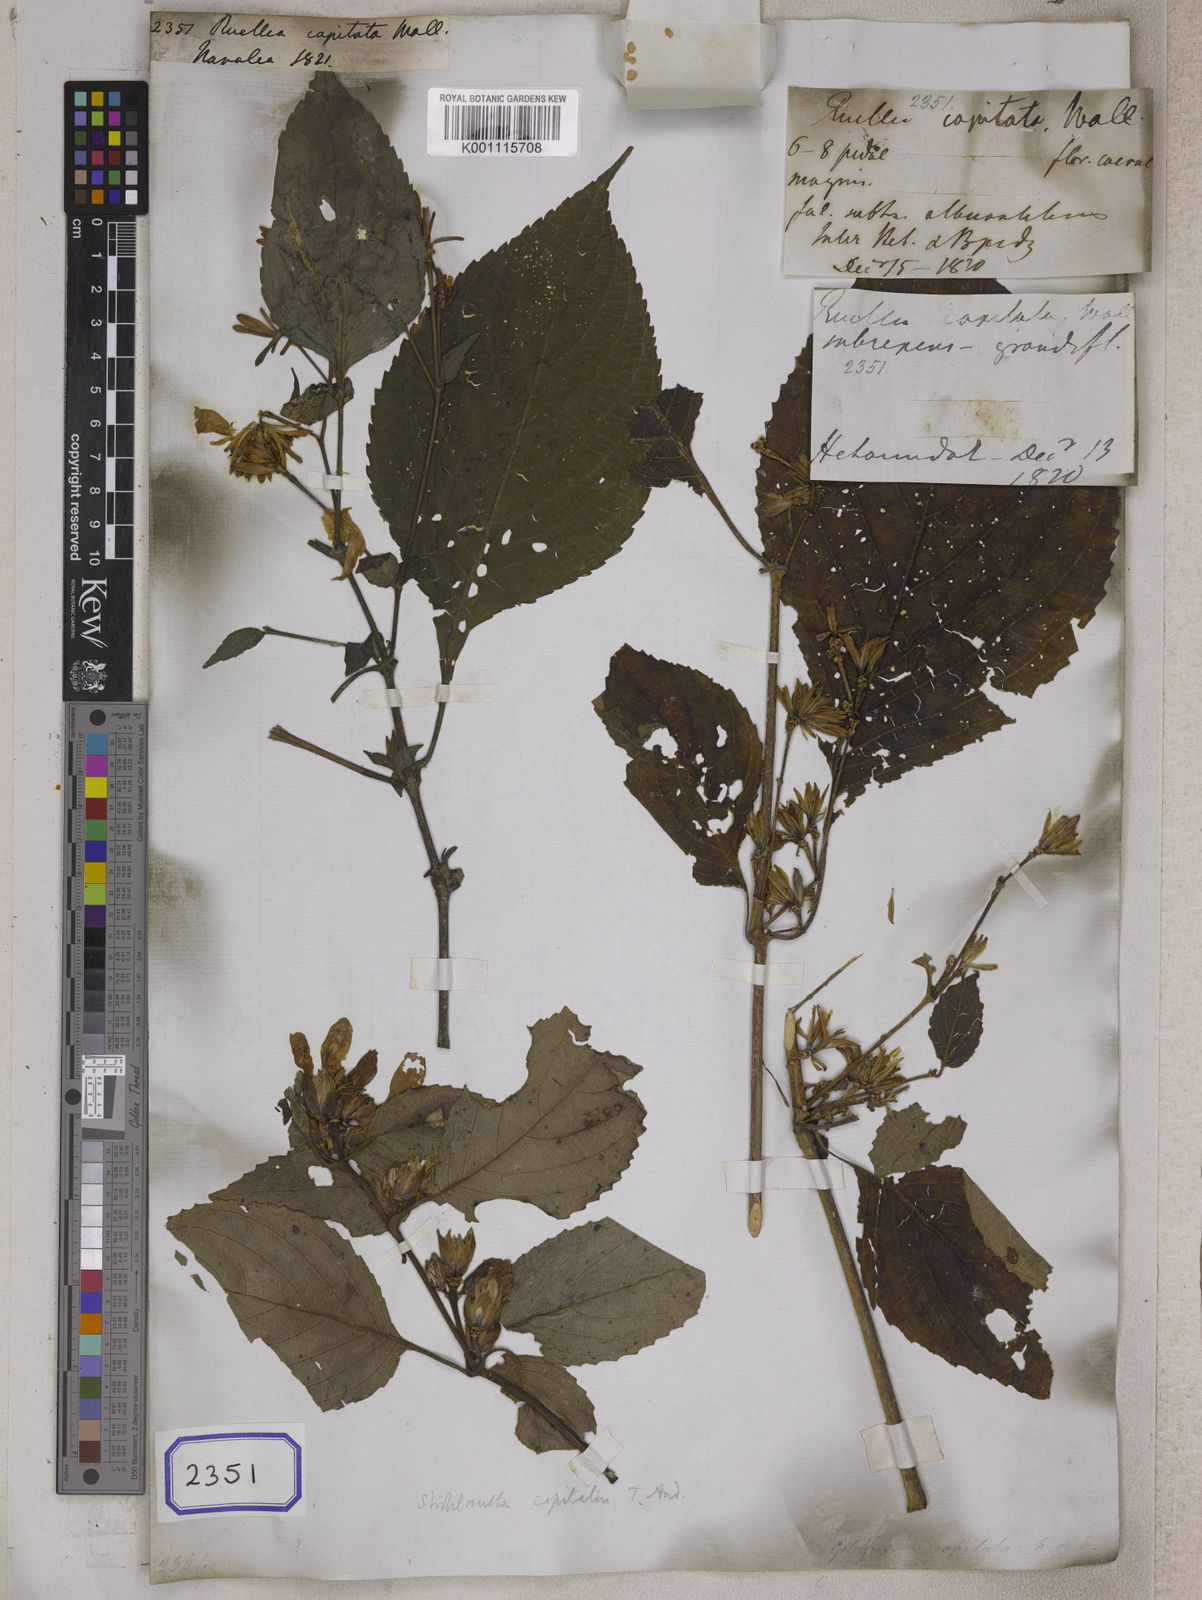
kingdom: Plantae
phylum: Tracheophyta
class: Magnoliopsida
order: Lamiales
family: Acanthaceae
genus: Ruellia
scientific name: Ruellia
